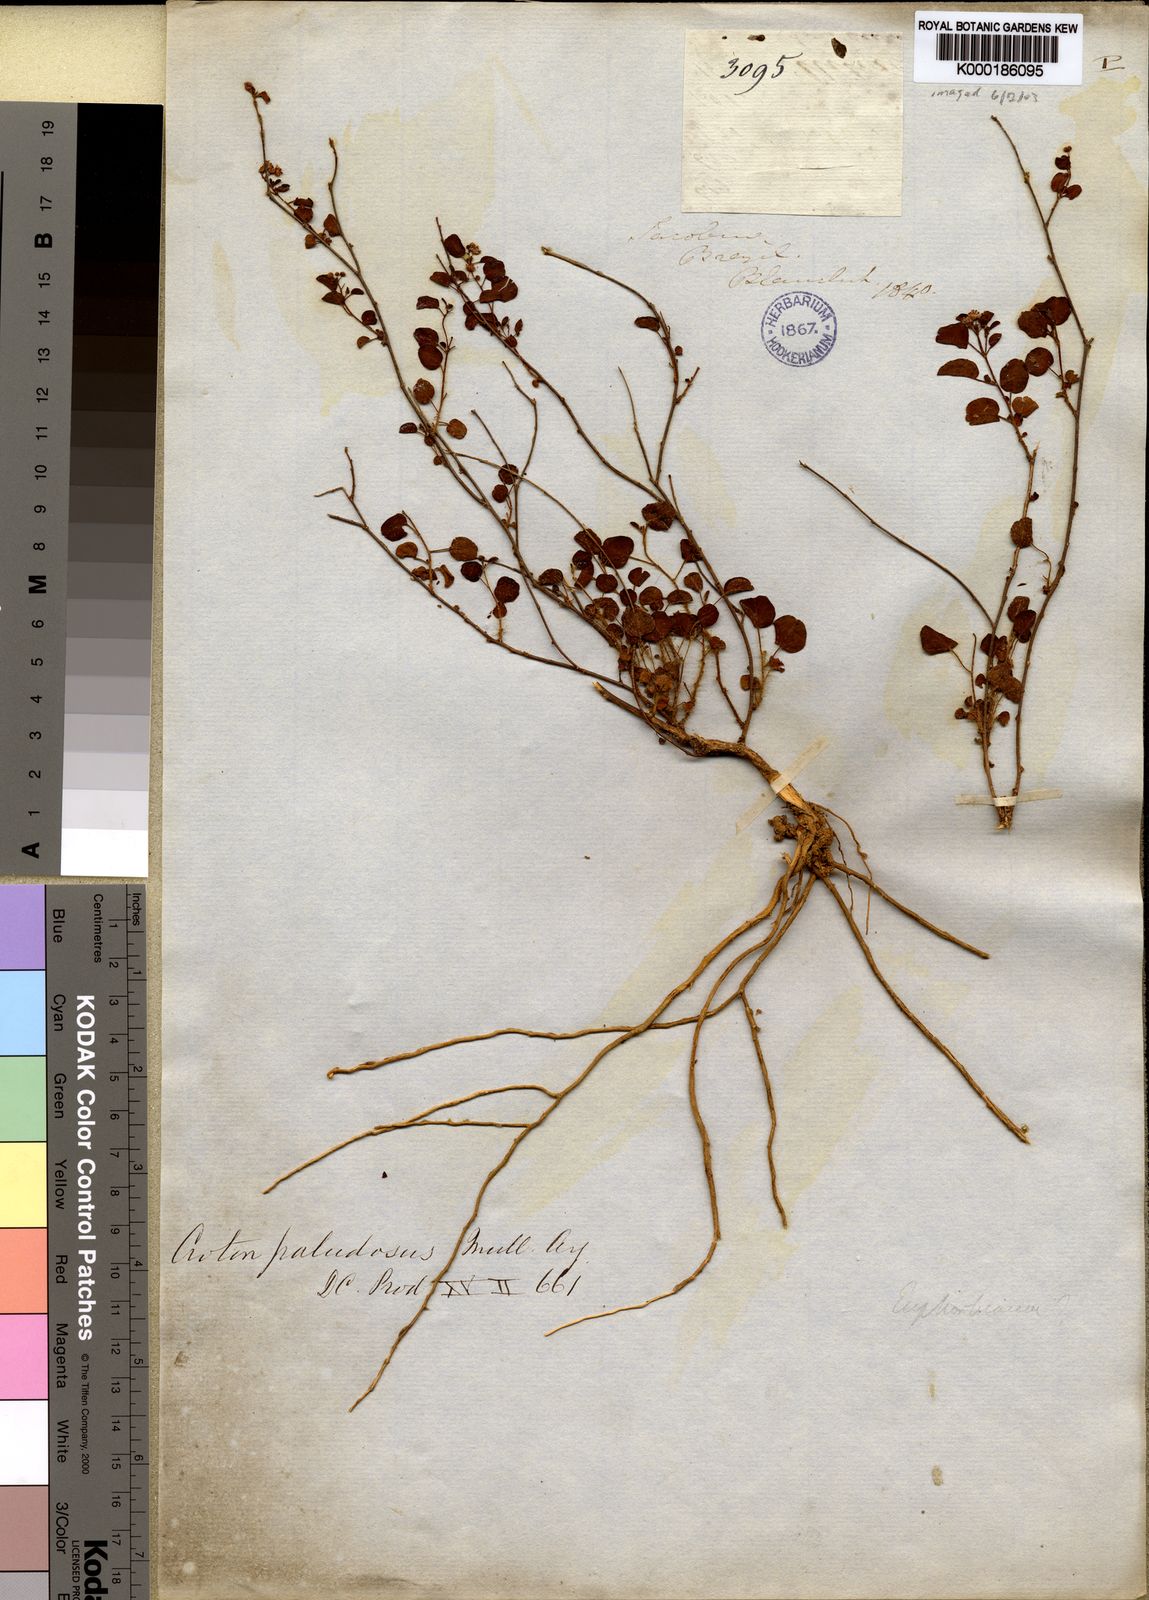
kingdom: Plantae
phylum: Tracheophyta
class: Magnoliopsida
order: Malpighiales
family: Euphorbiaceae
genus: Croton
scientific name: Croton
